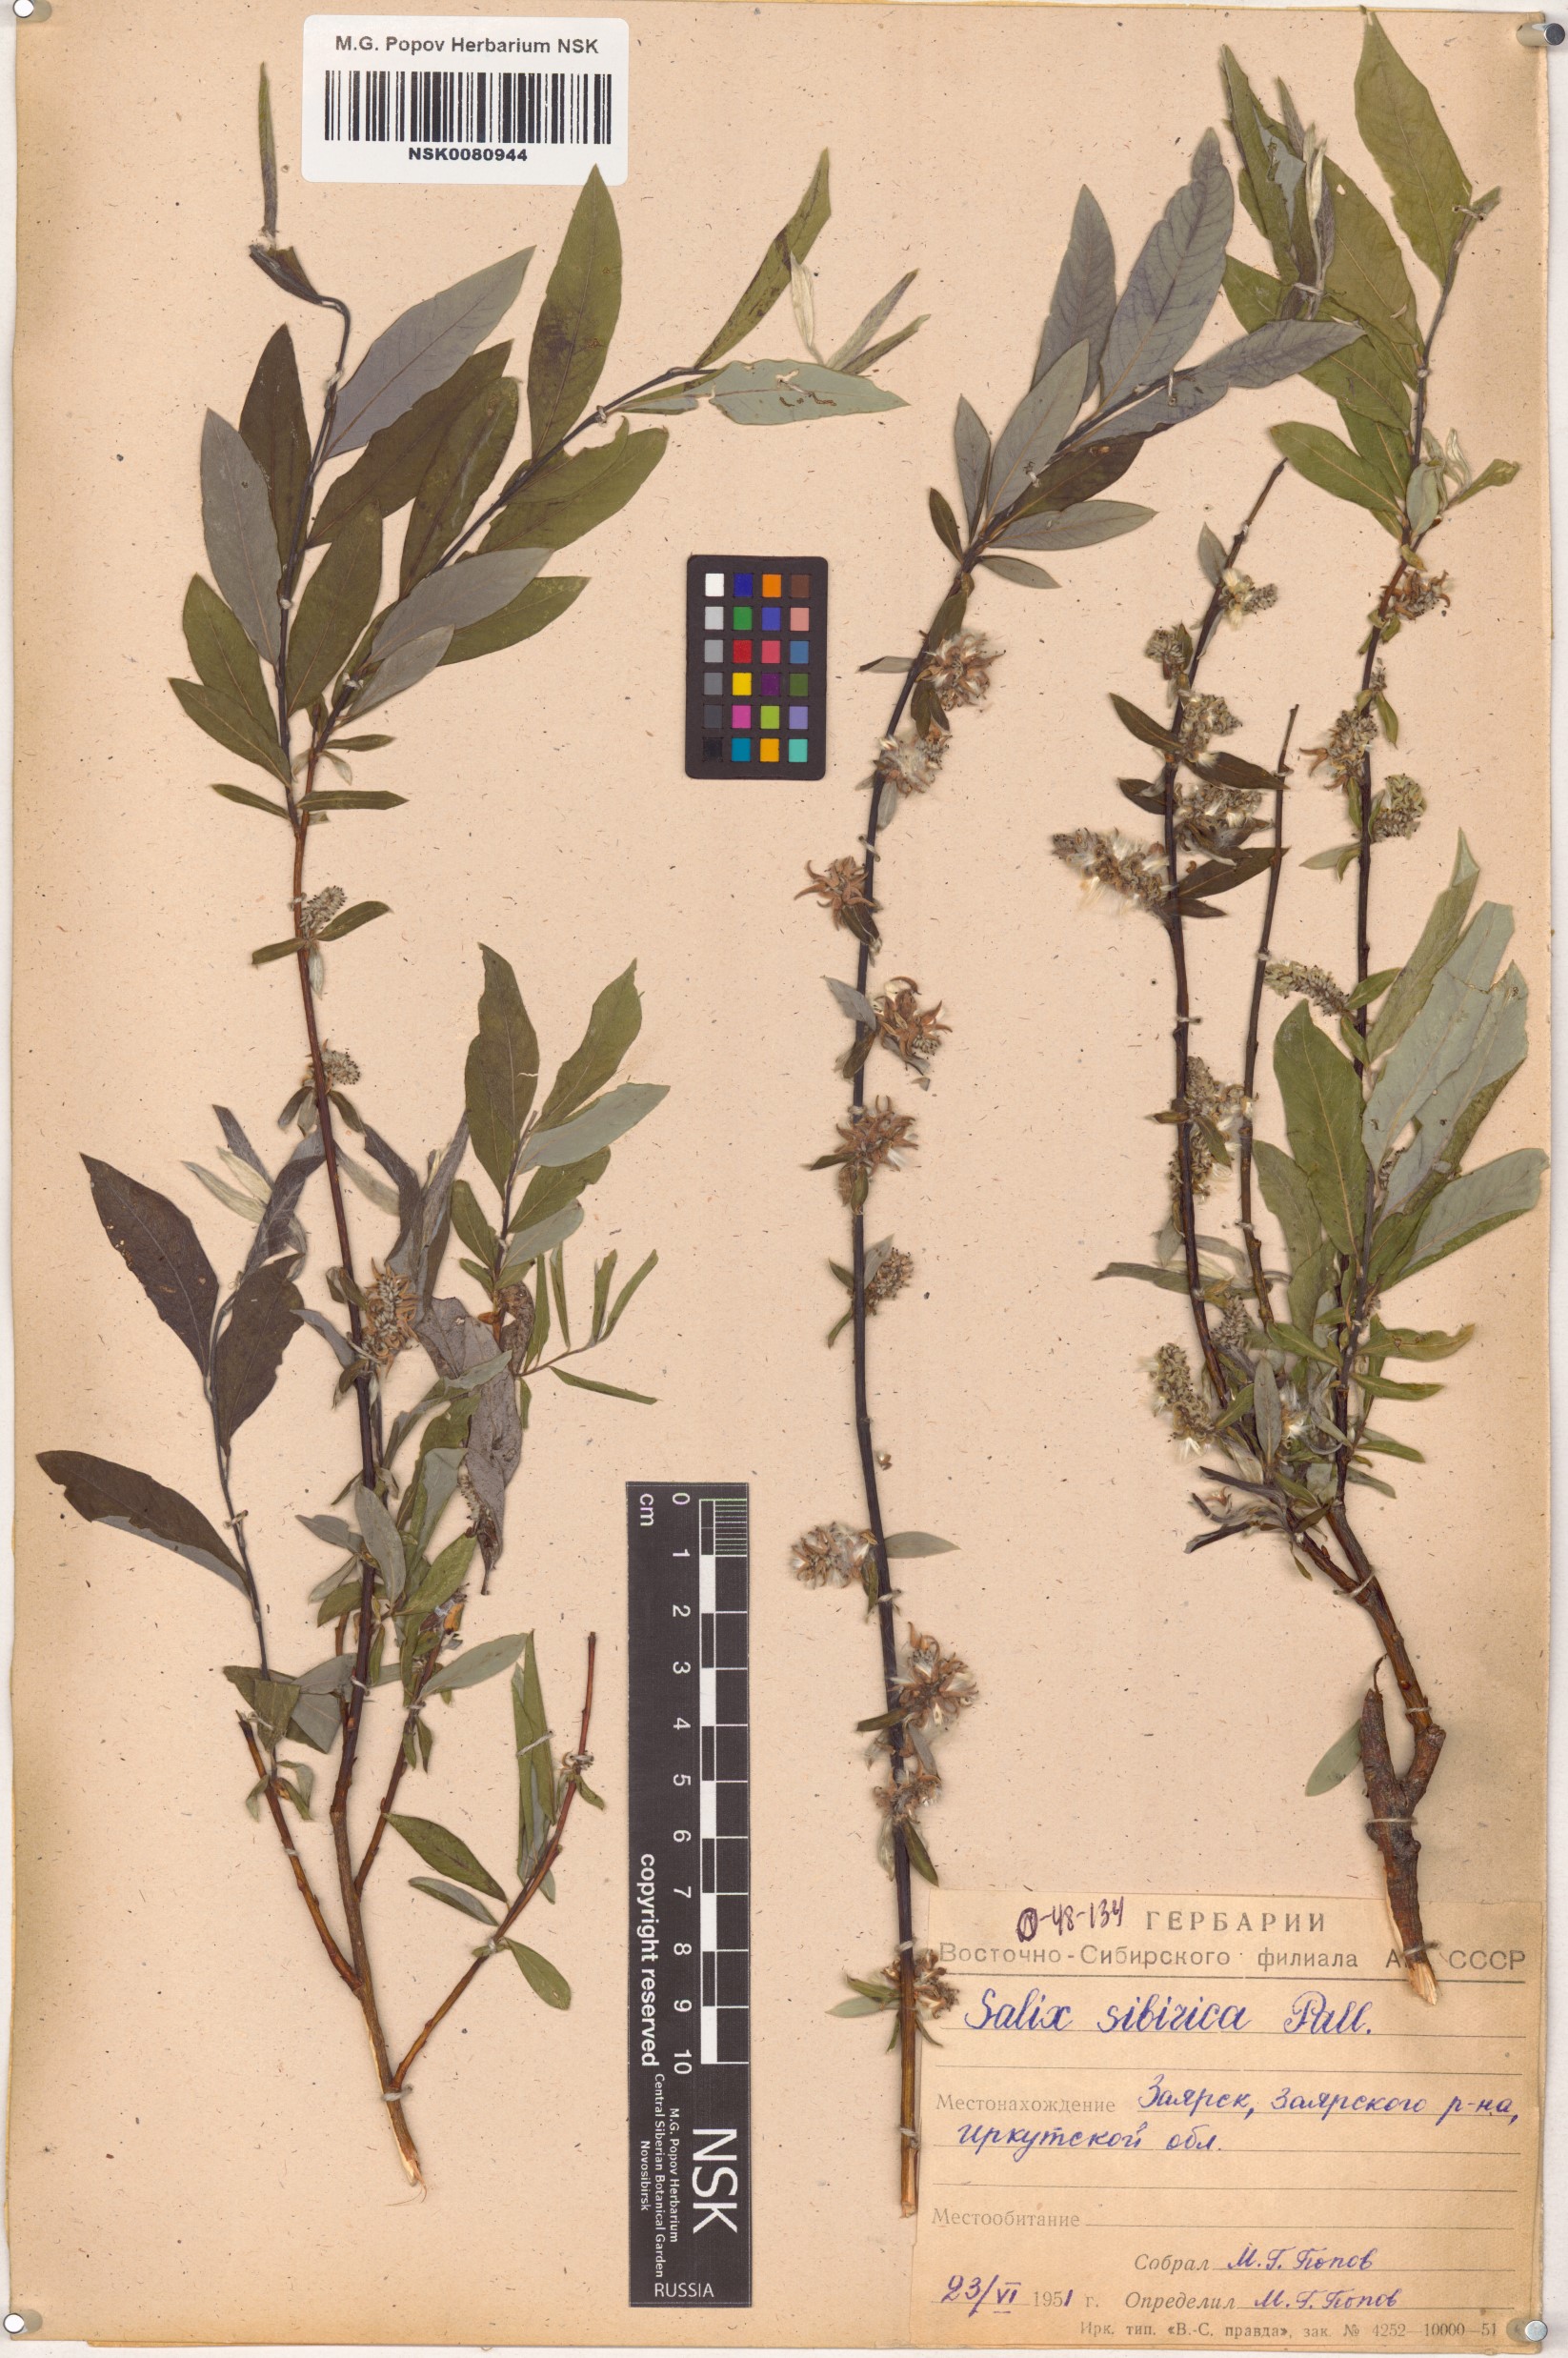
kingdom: Plantae
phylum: Tracheophyta
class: Magnoliopsida
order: Malpighiales
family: Salicaceae
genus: Salix
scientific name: Salix rosmarinifolia
